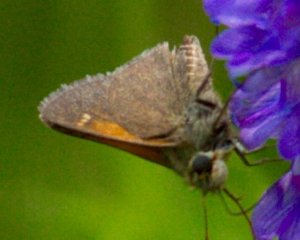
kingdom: Animalia
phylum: Arthropoda
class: Insecta
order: Lepidoptera
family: Hesperiidae
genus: Polites
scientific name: Polites themistocles
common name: Tawny-edged Skipper
